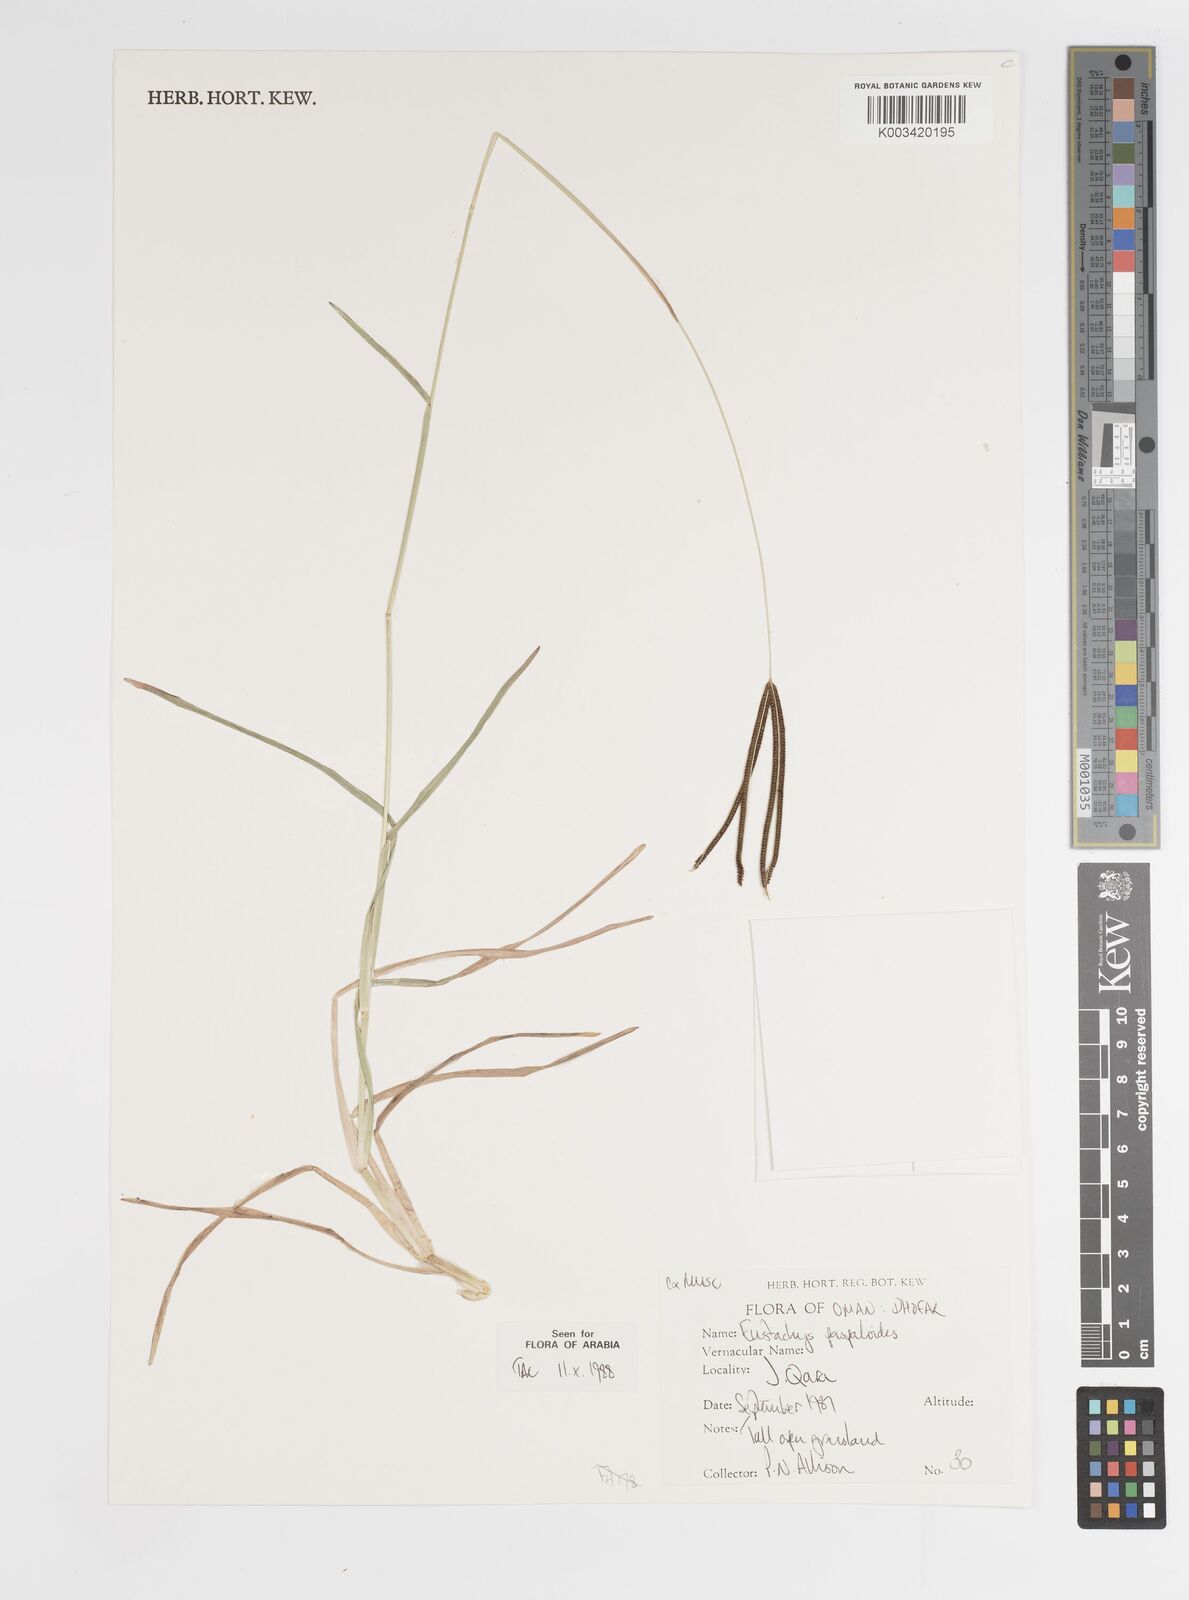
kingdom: Plantae
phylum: Tracheophyta
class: Liliopsida
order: Poales
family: Poaceae
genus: Eustachys
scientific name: Eustachys paspaloides
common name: Caribbean fingergrass
